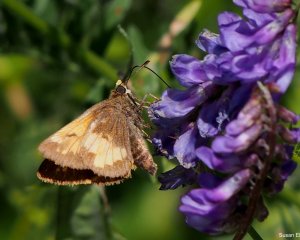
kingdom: Animalia
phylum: Arthropoda
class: Insecta
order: Lepidoptera
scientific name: Lepidoptera
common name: Butterflies
